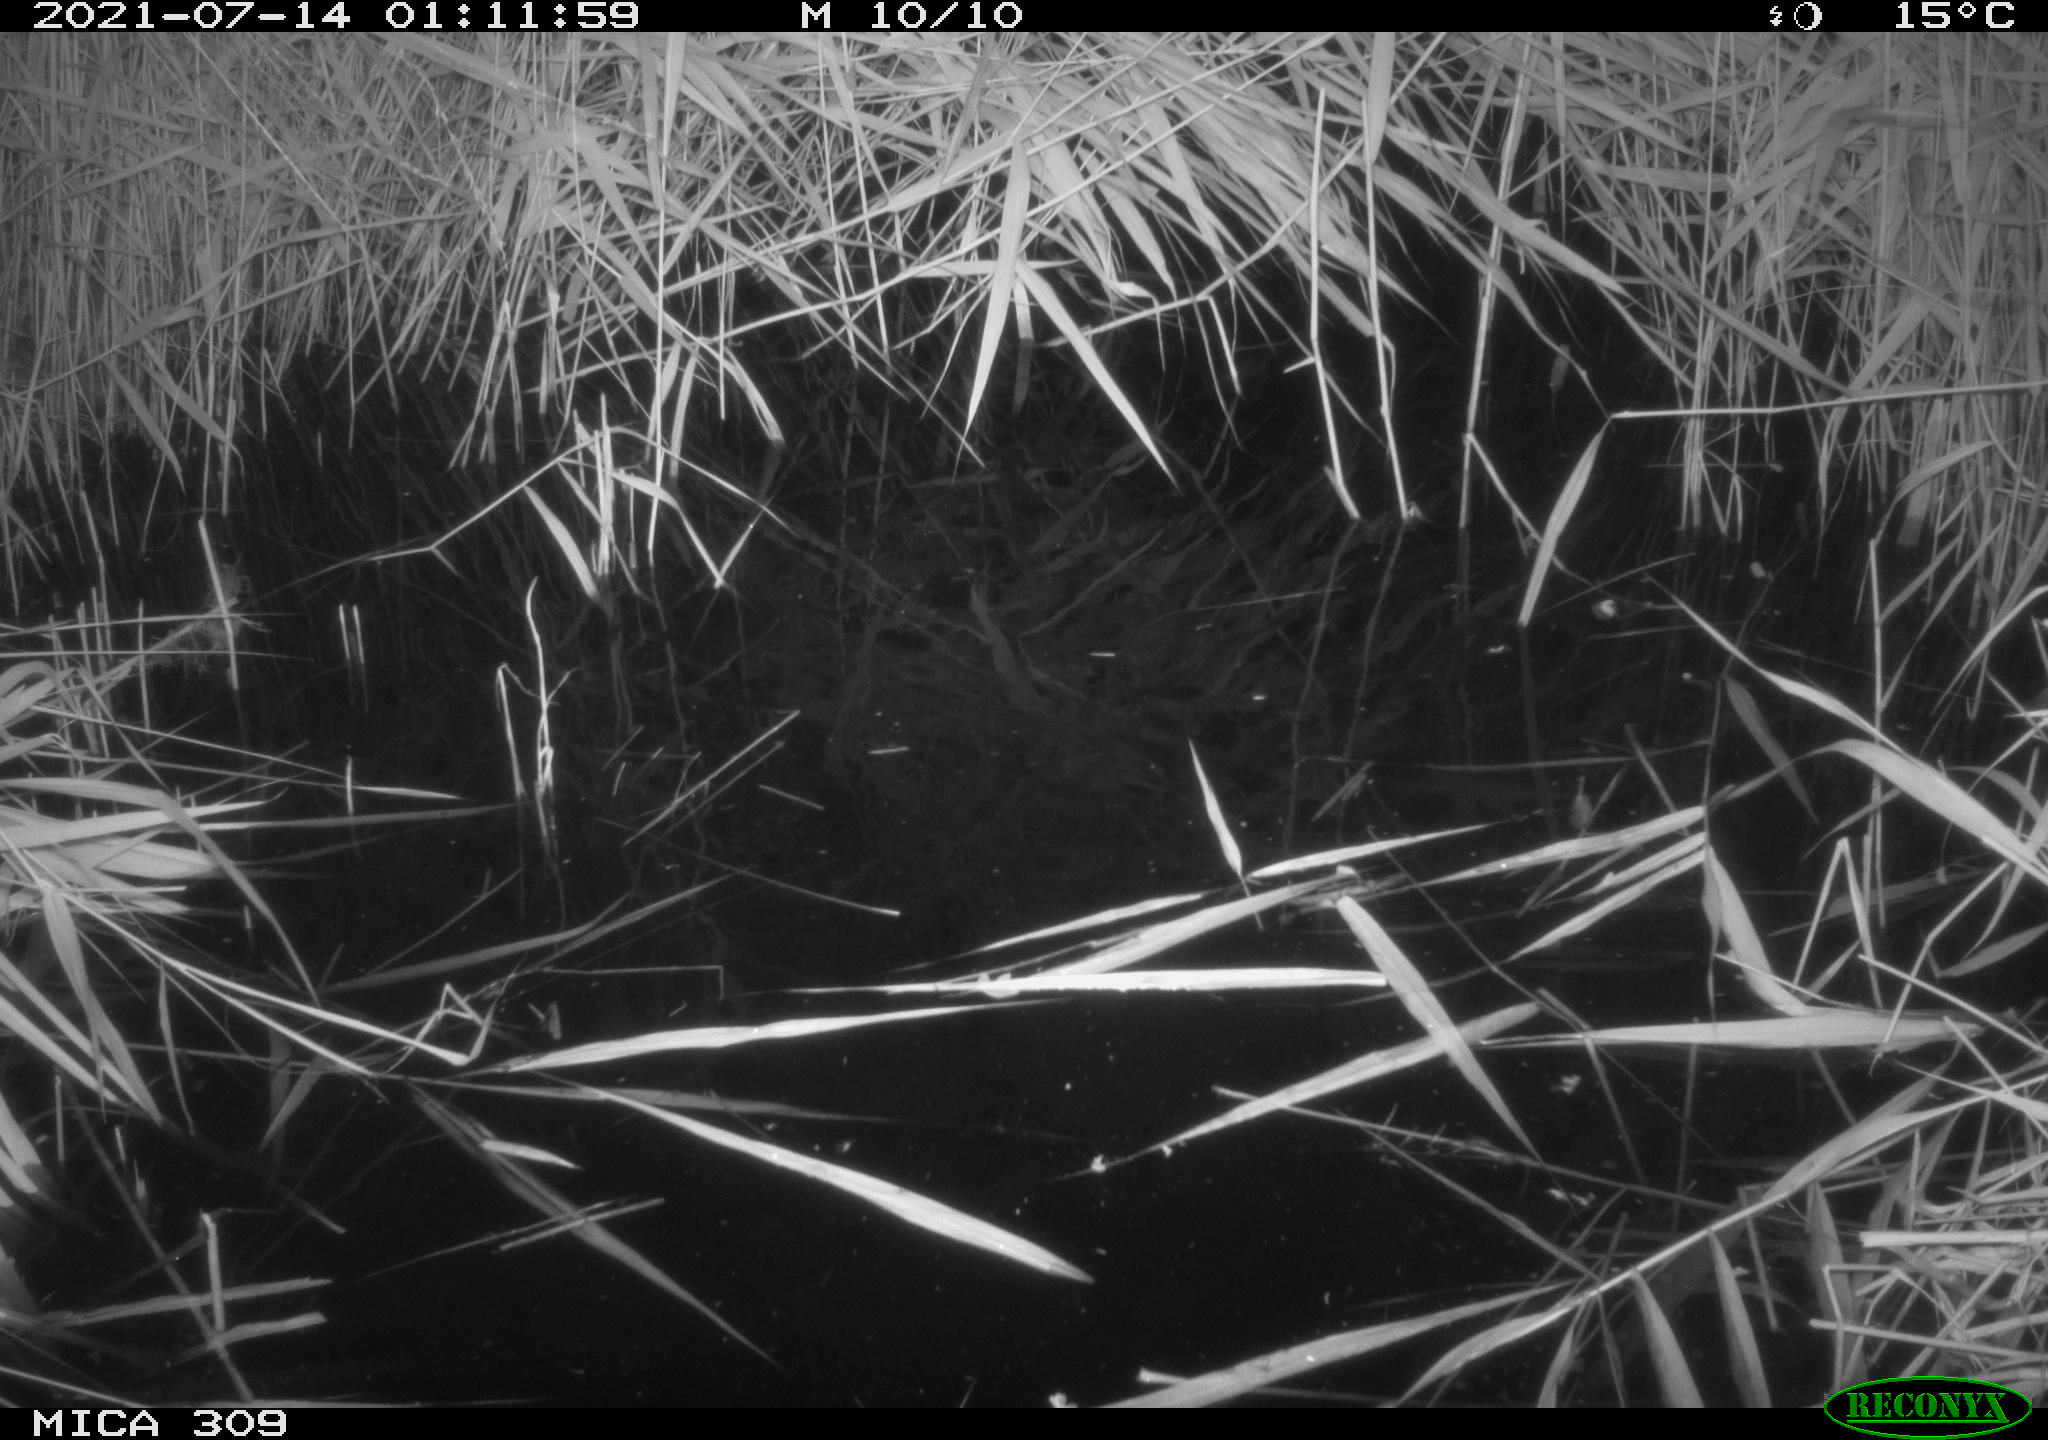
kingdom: Animalia
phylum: Chordata
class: Mammalia
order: Rodentia
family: Muridae
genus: Rattus
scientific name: Rattus norvegicus
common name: Brown rat
